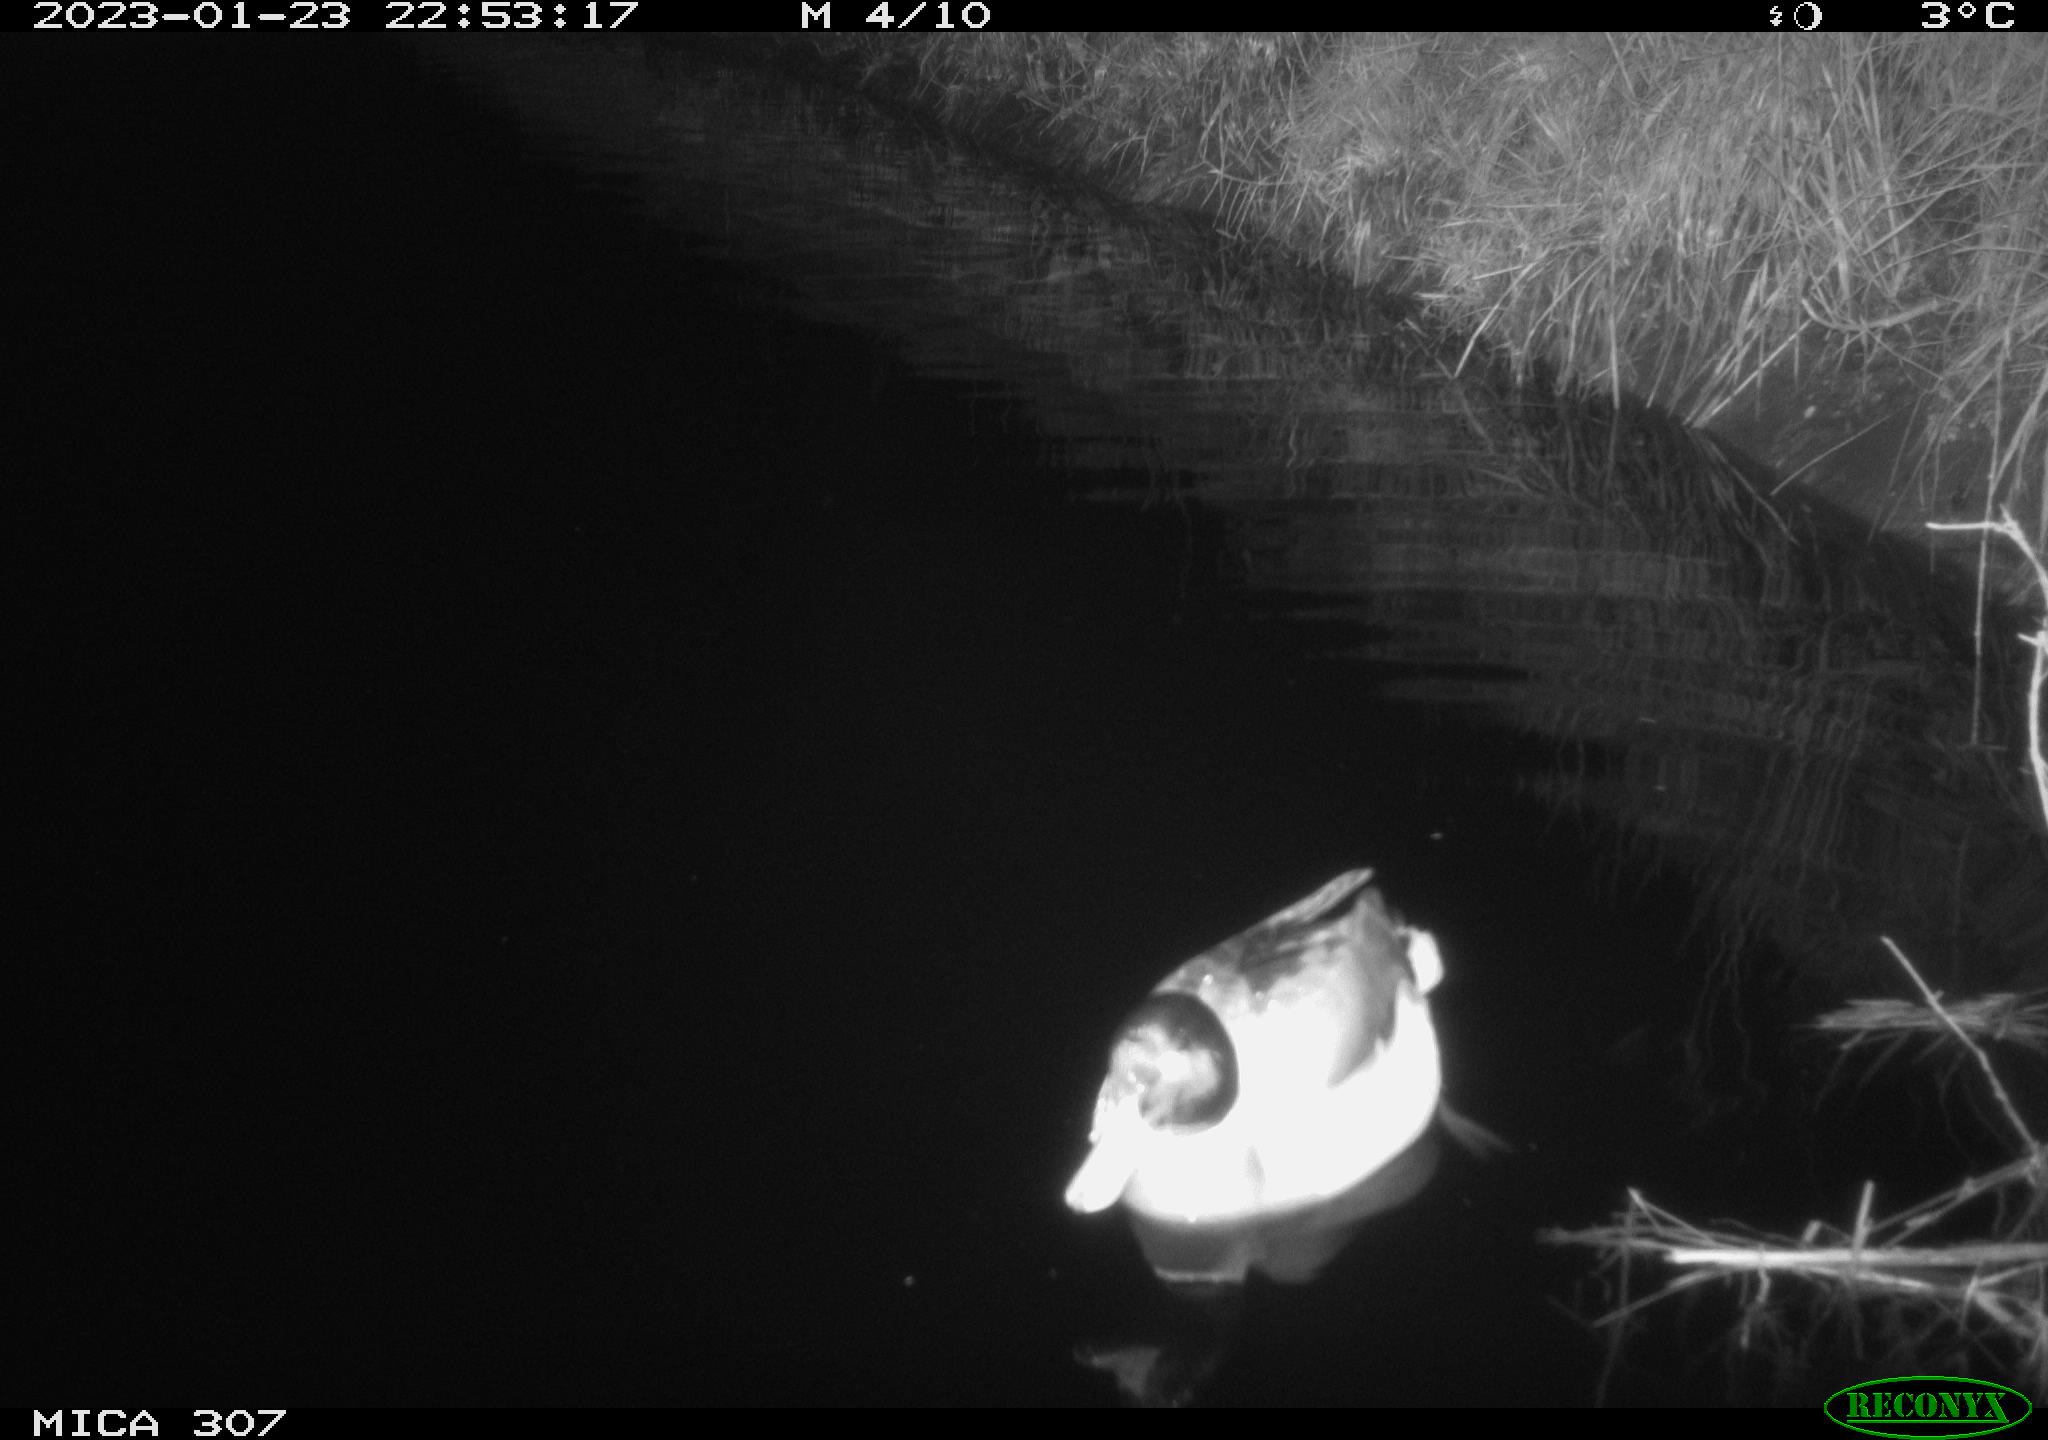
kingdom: Animalia
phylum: Chordata
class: Aves
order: Anseriformes
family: Anatidae
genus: Anas
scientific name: Anas
